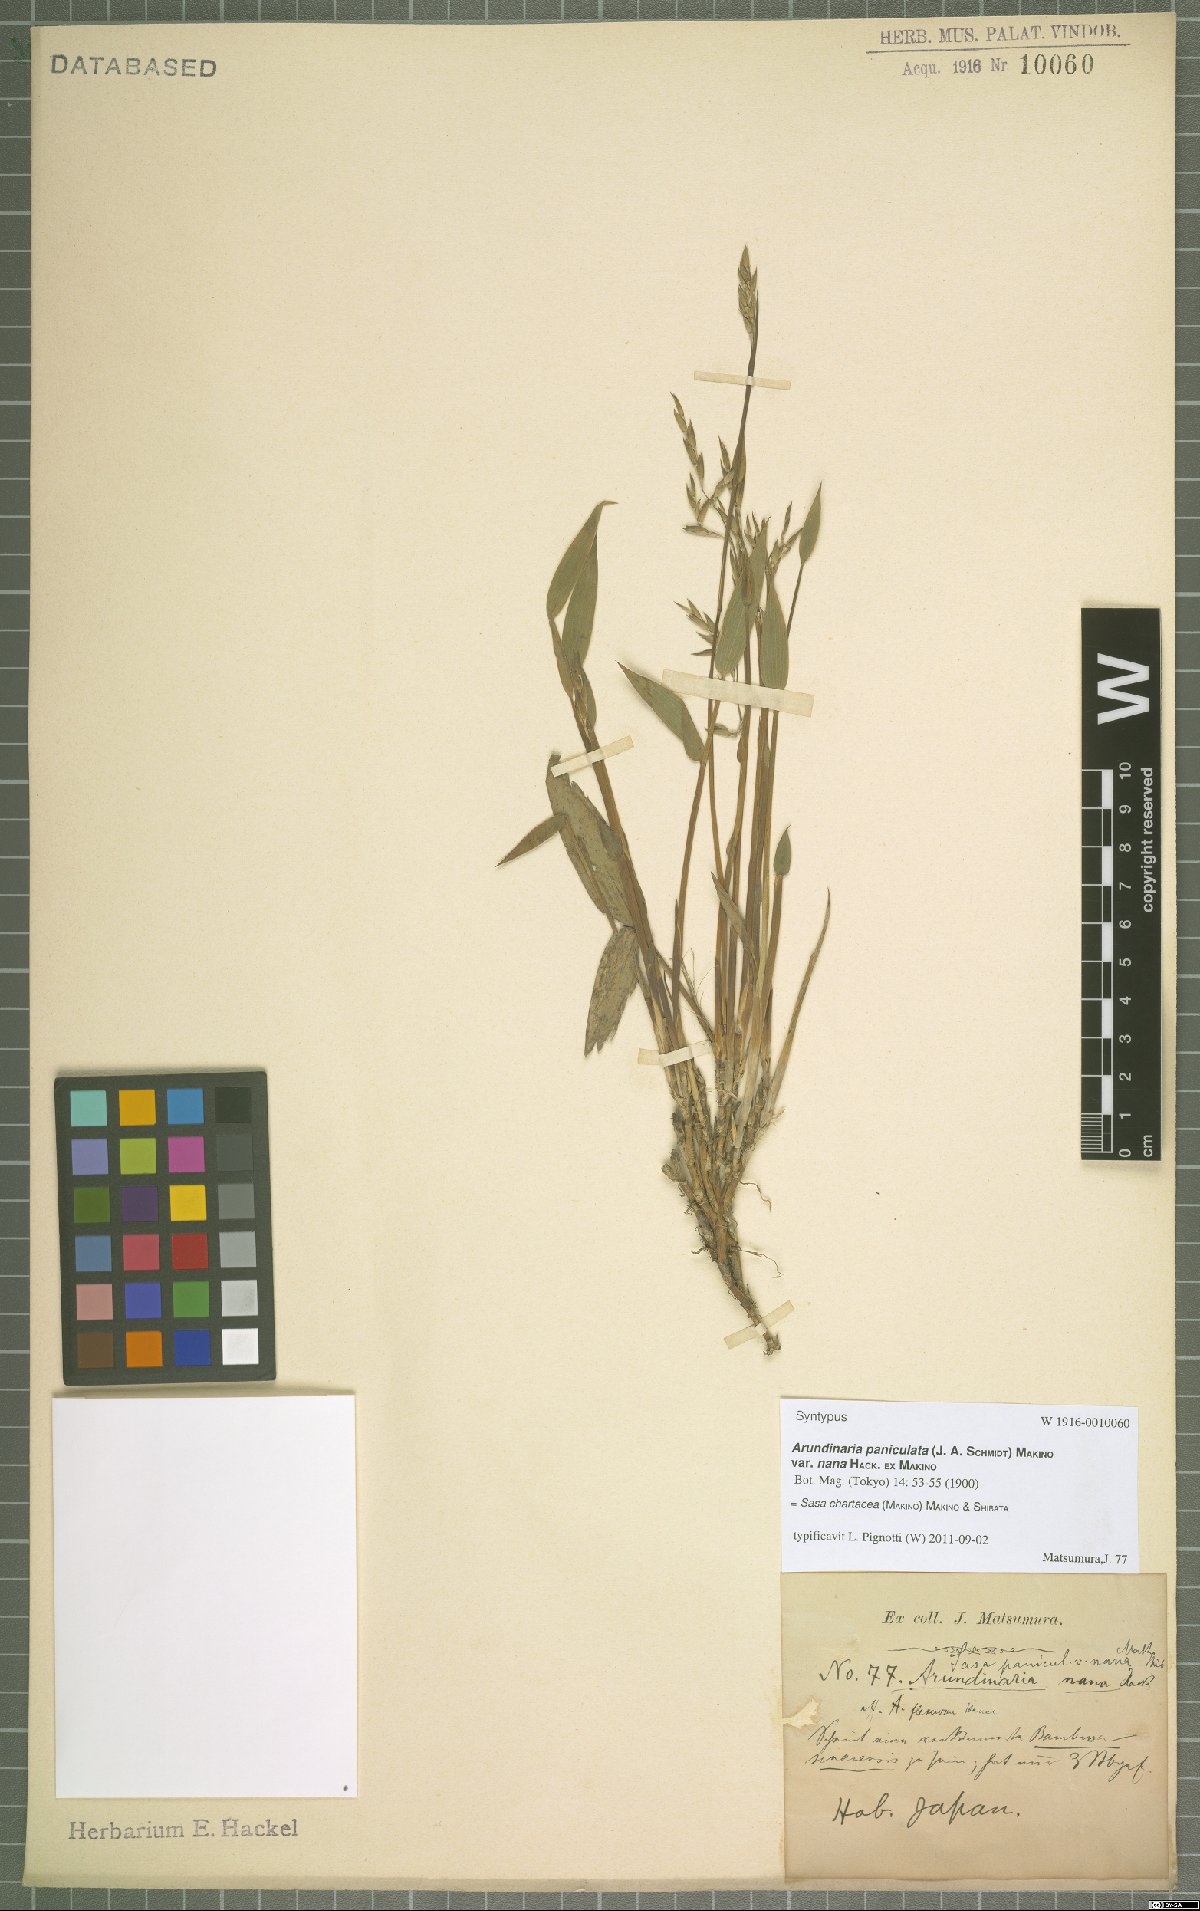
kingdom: Plantae
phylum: Tracheophyta
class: Liliopsida
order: Poales
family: Poaceae
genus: Sasa
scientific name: Sasa chartacea
